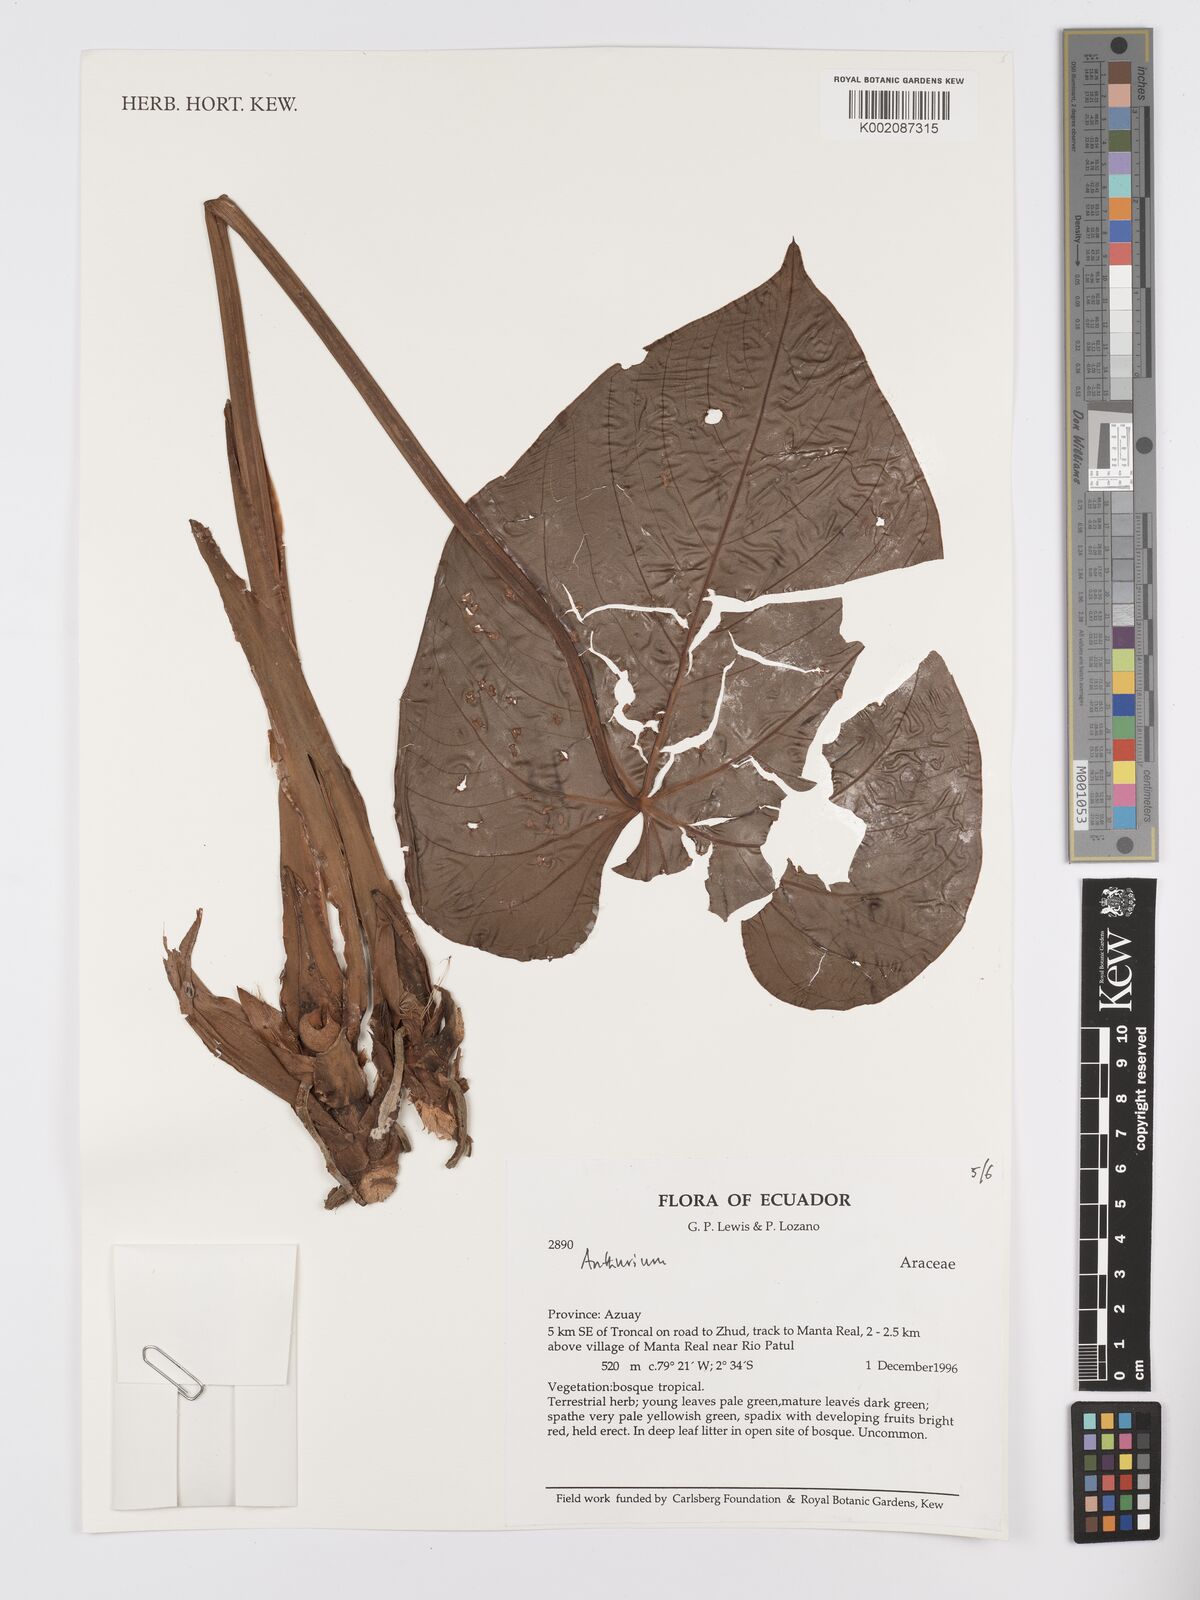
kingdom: Plantae
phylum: Tracheophyta
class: Liliopsida
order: Alismatales
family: Araceae
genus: Anthurium
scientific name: Anthurium
